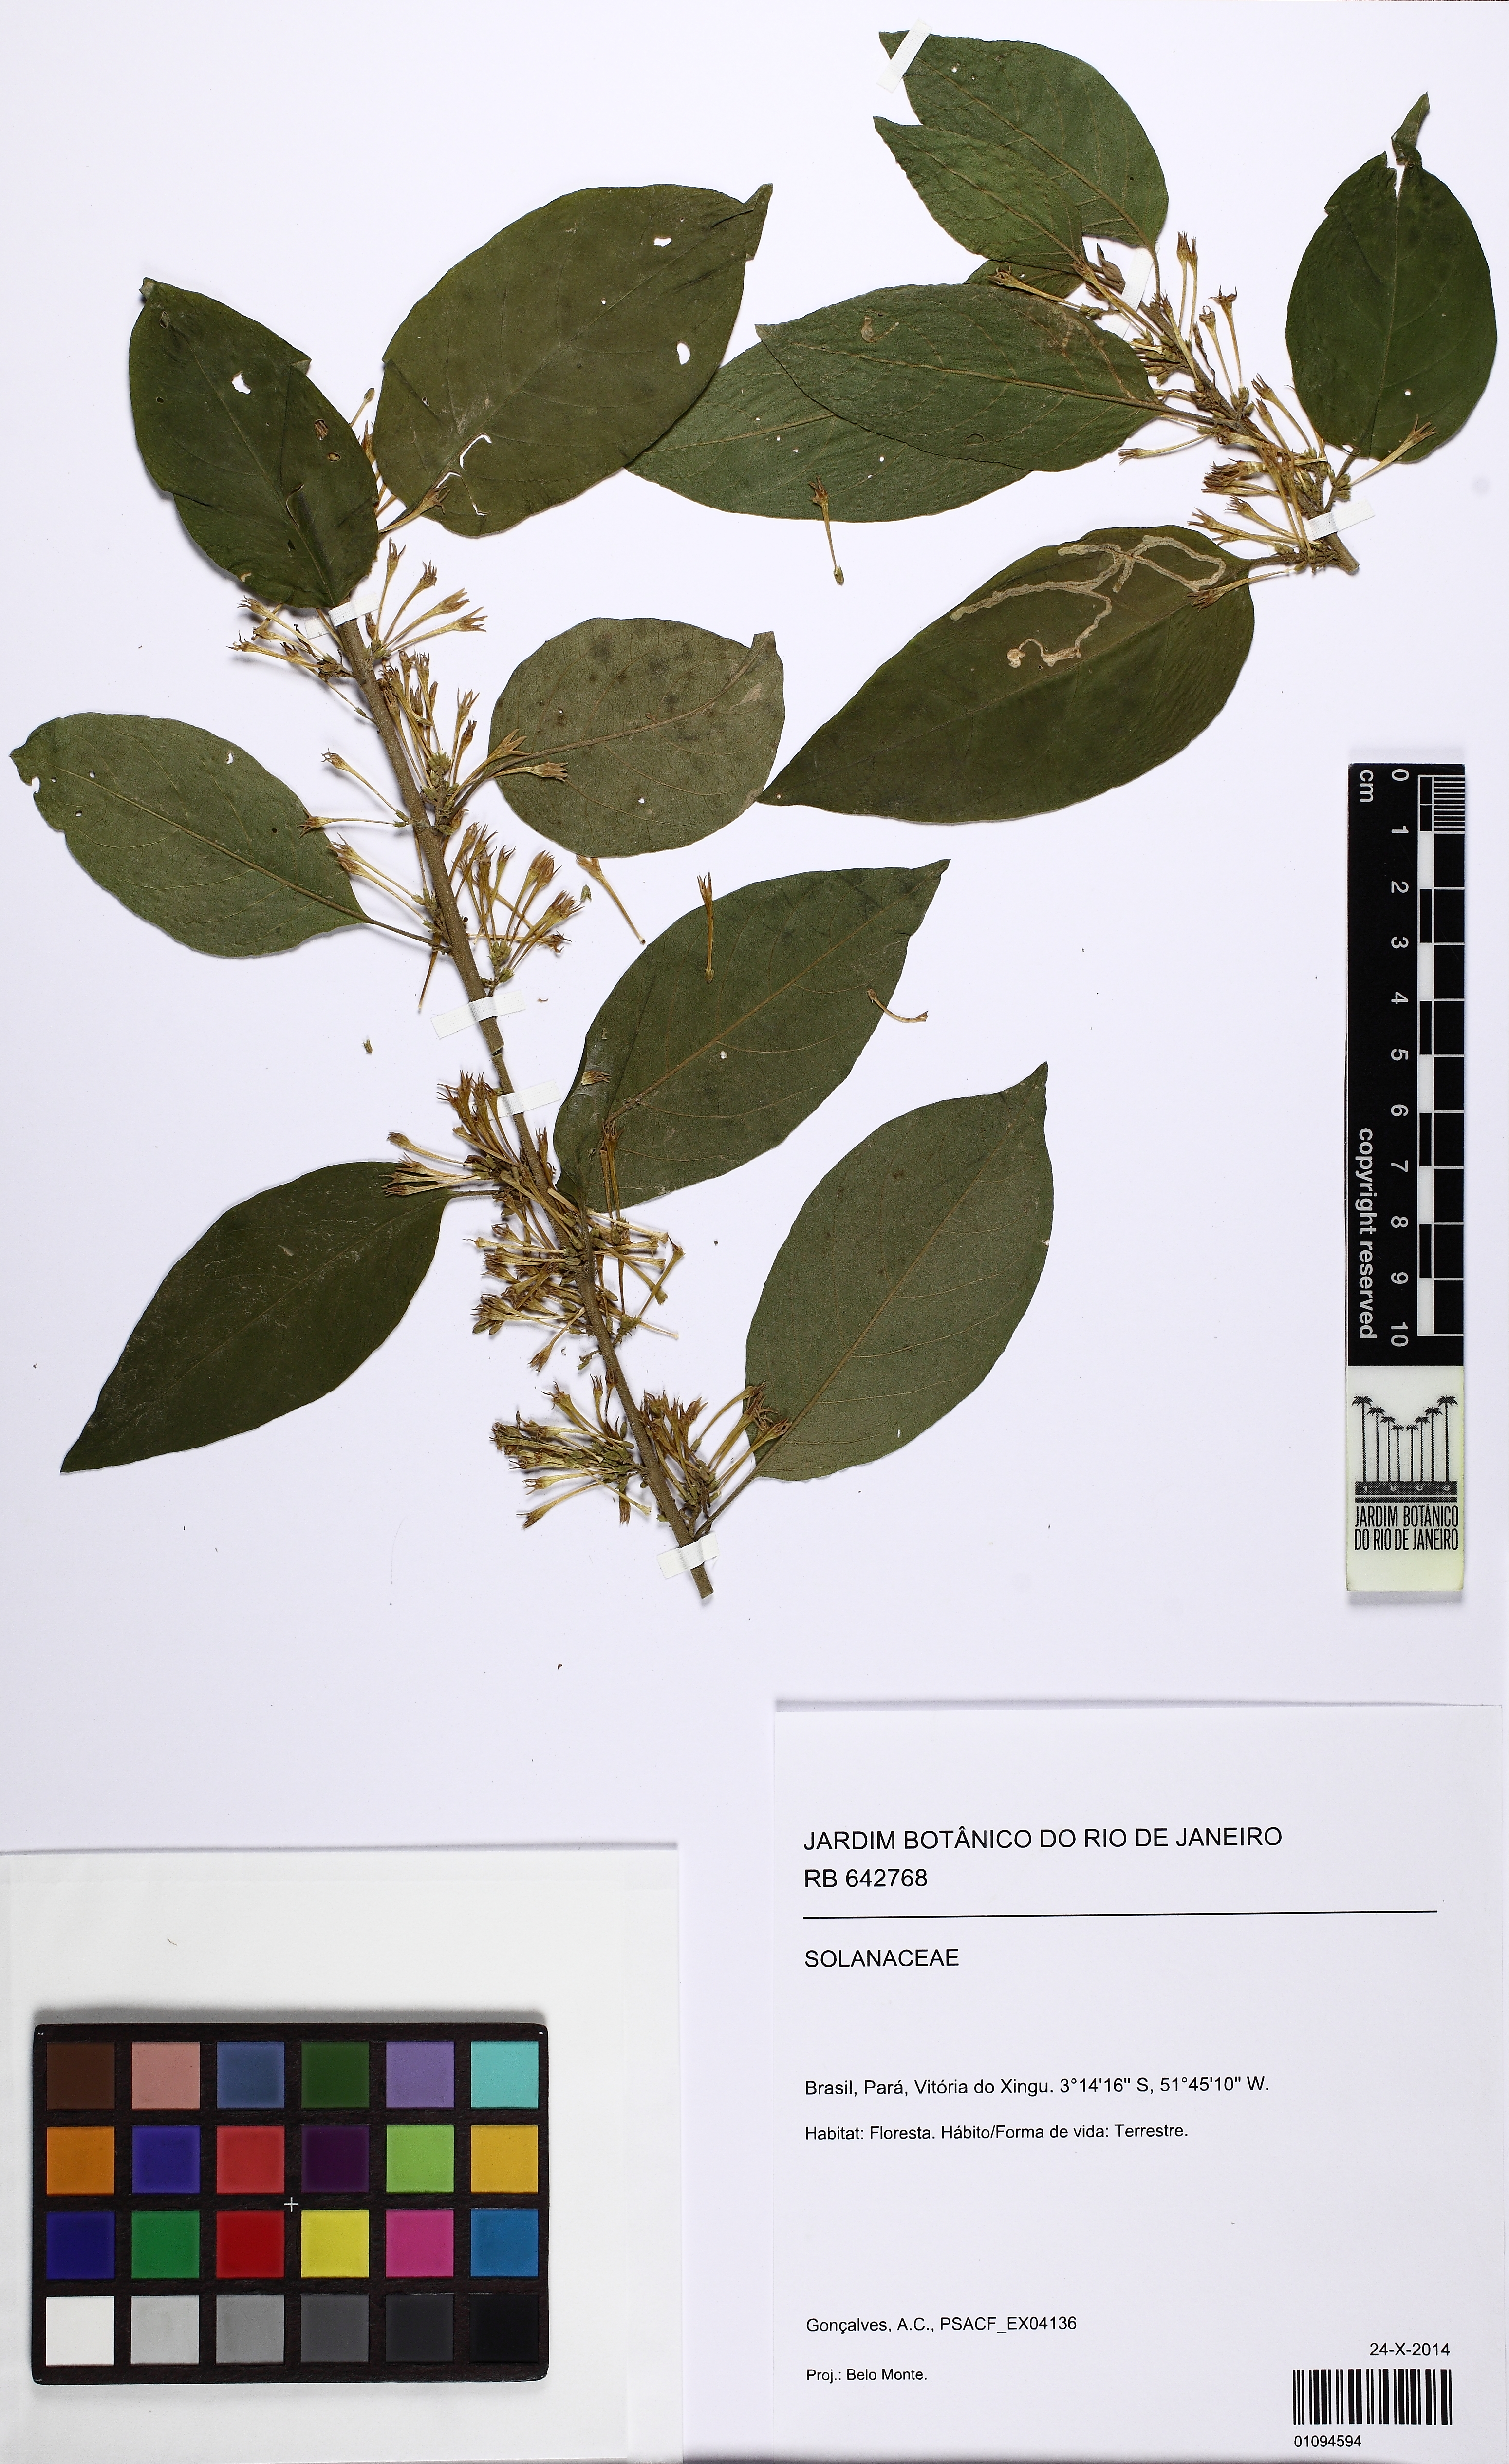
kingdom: Plantae
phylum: Tracheophyta
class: Magnoliopsida
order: Solanales
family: Solanaceae
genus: Cestrum
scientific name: Cestrum
